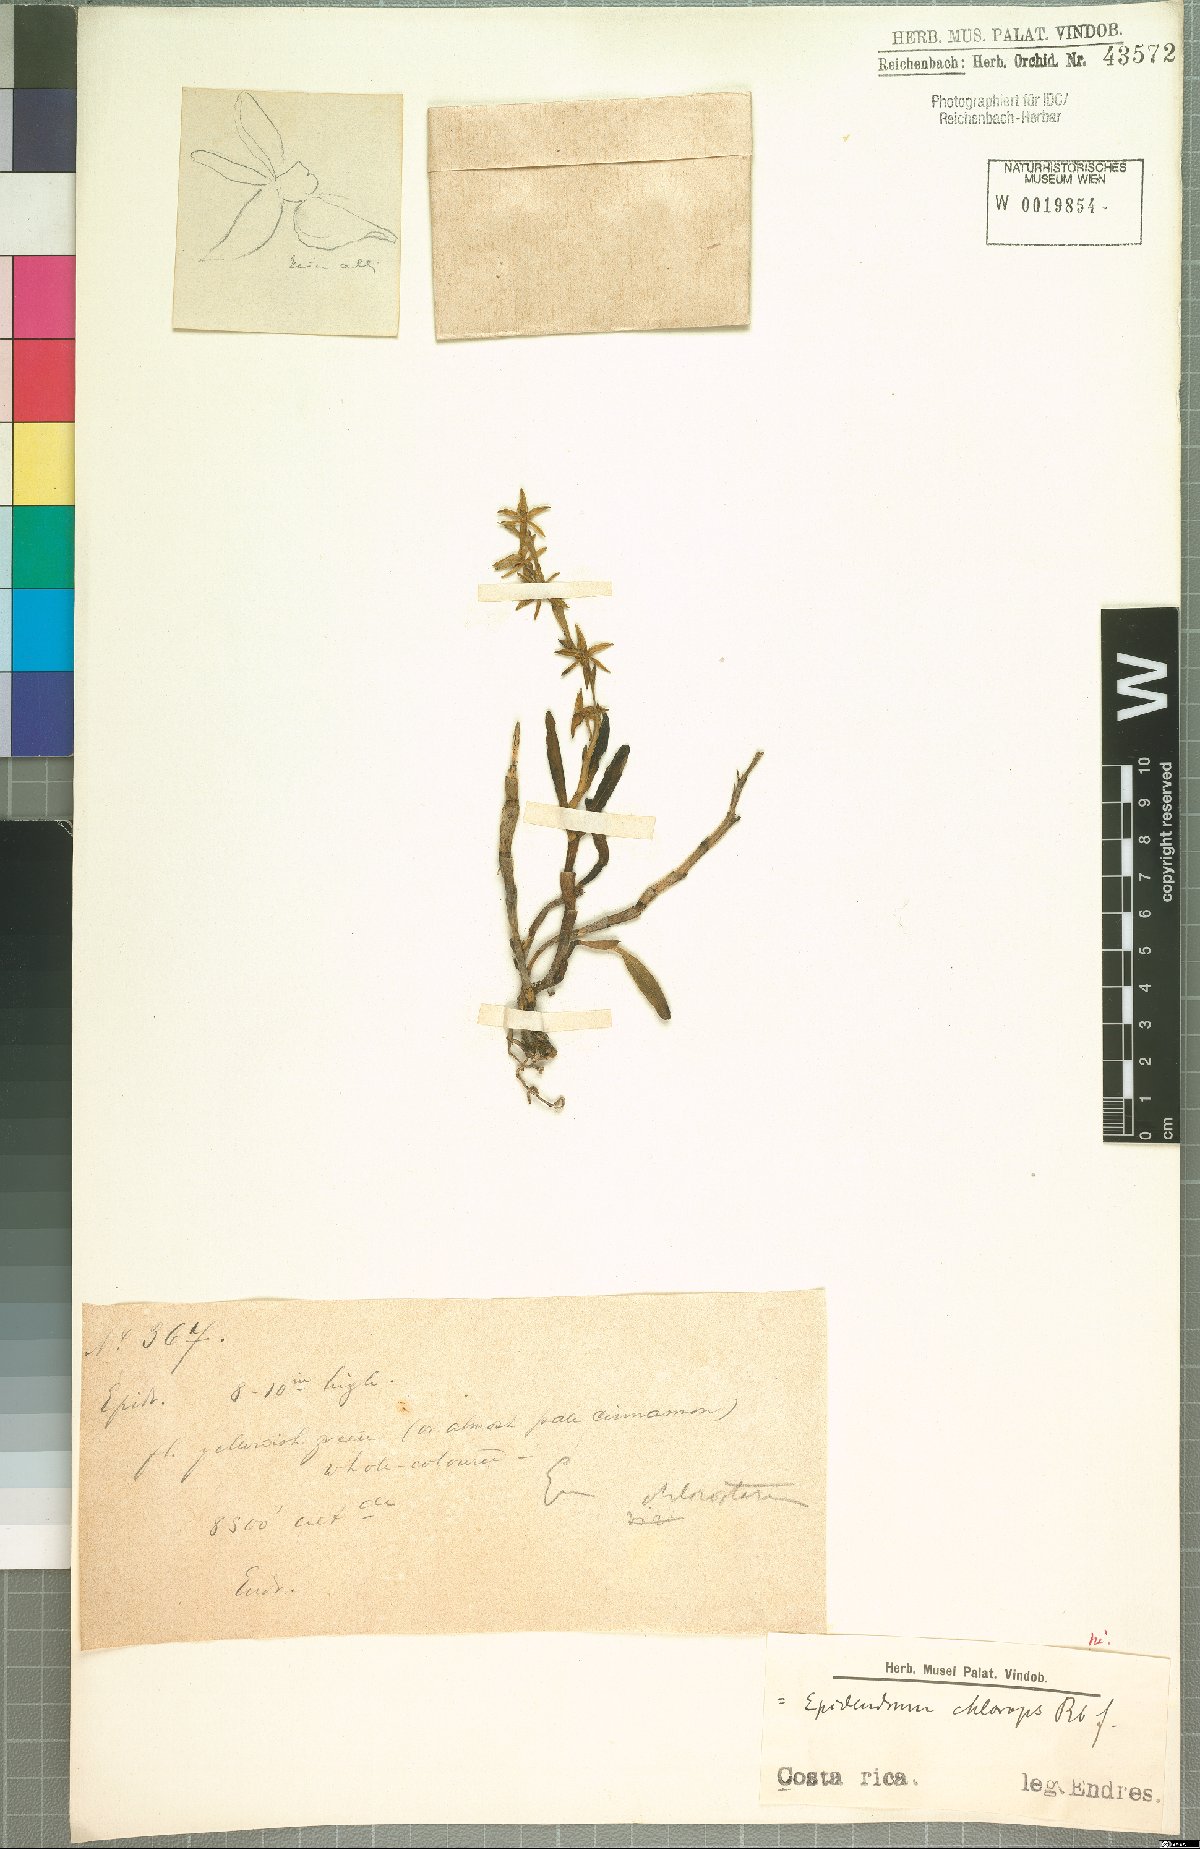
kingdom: Plantae
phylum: Tracheophyta
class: Liliopsida
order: Asparagales
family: Orchidaceae
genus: Epidendrum
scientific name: Epidendrum chlorops
